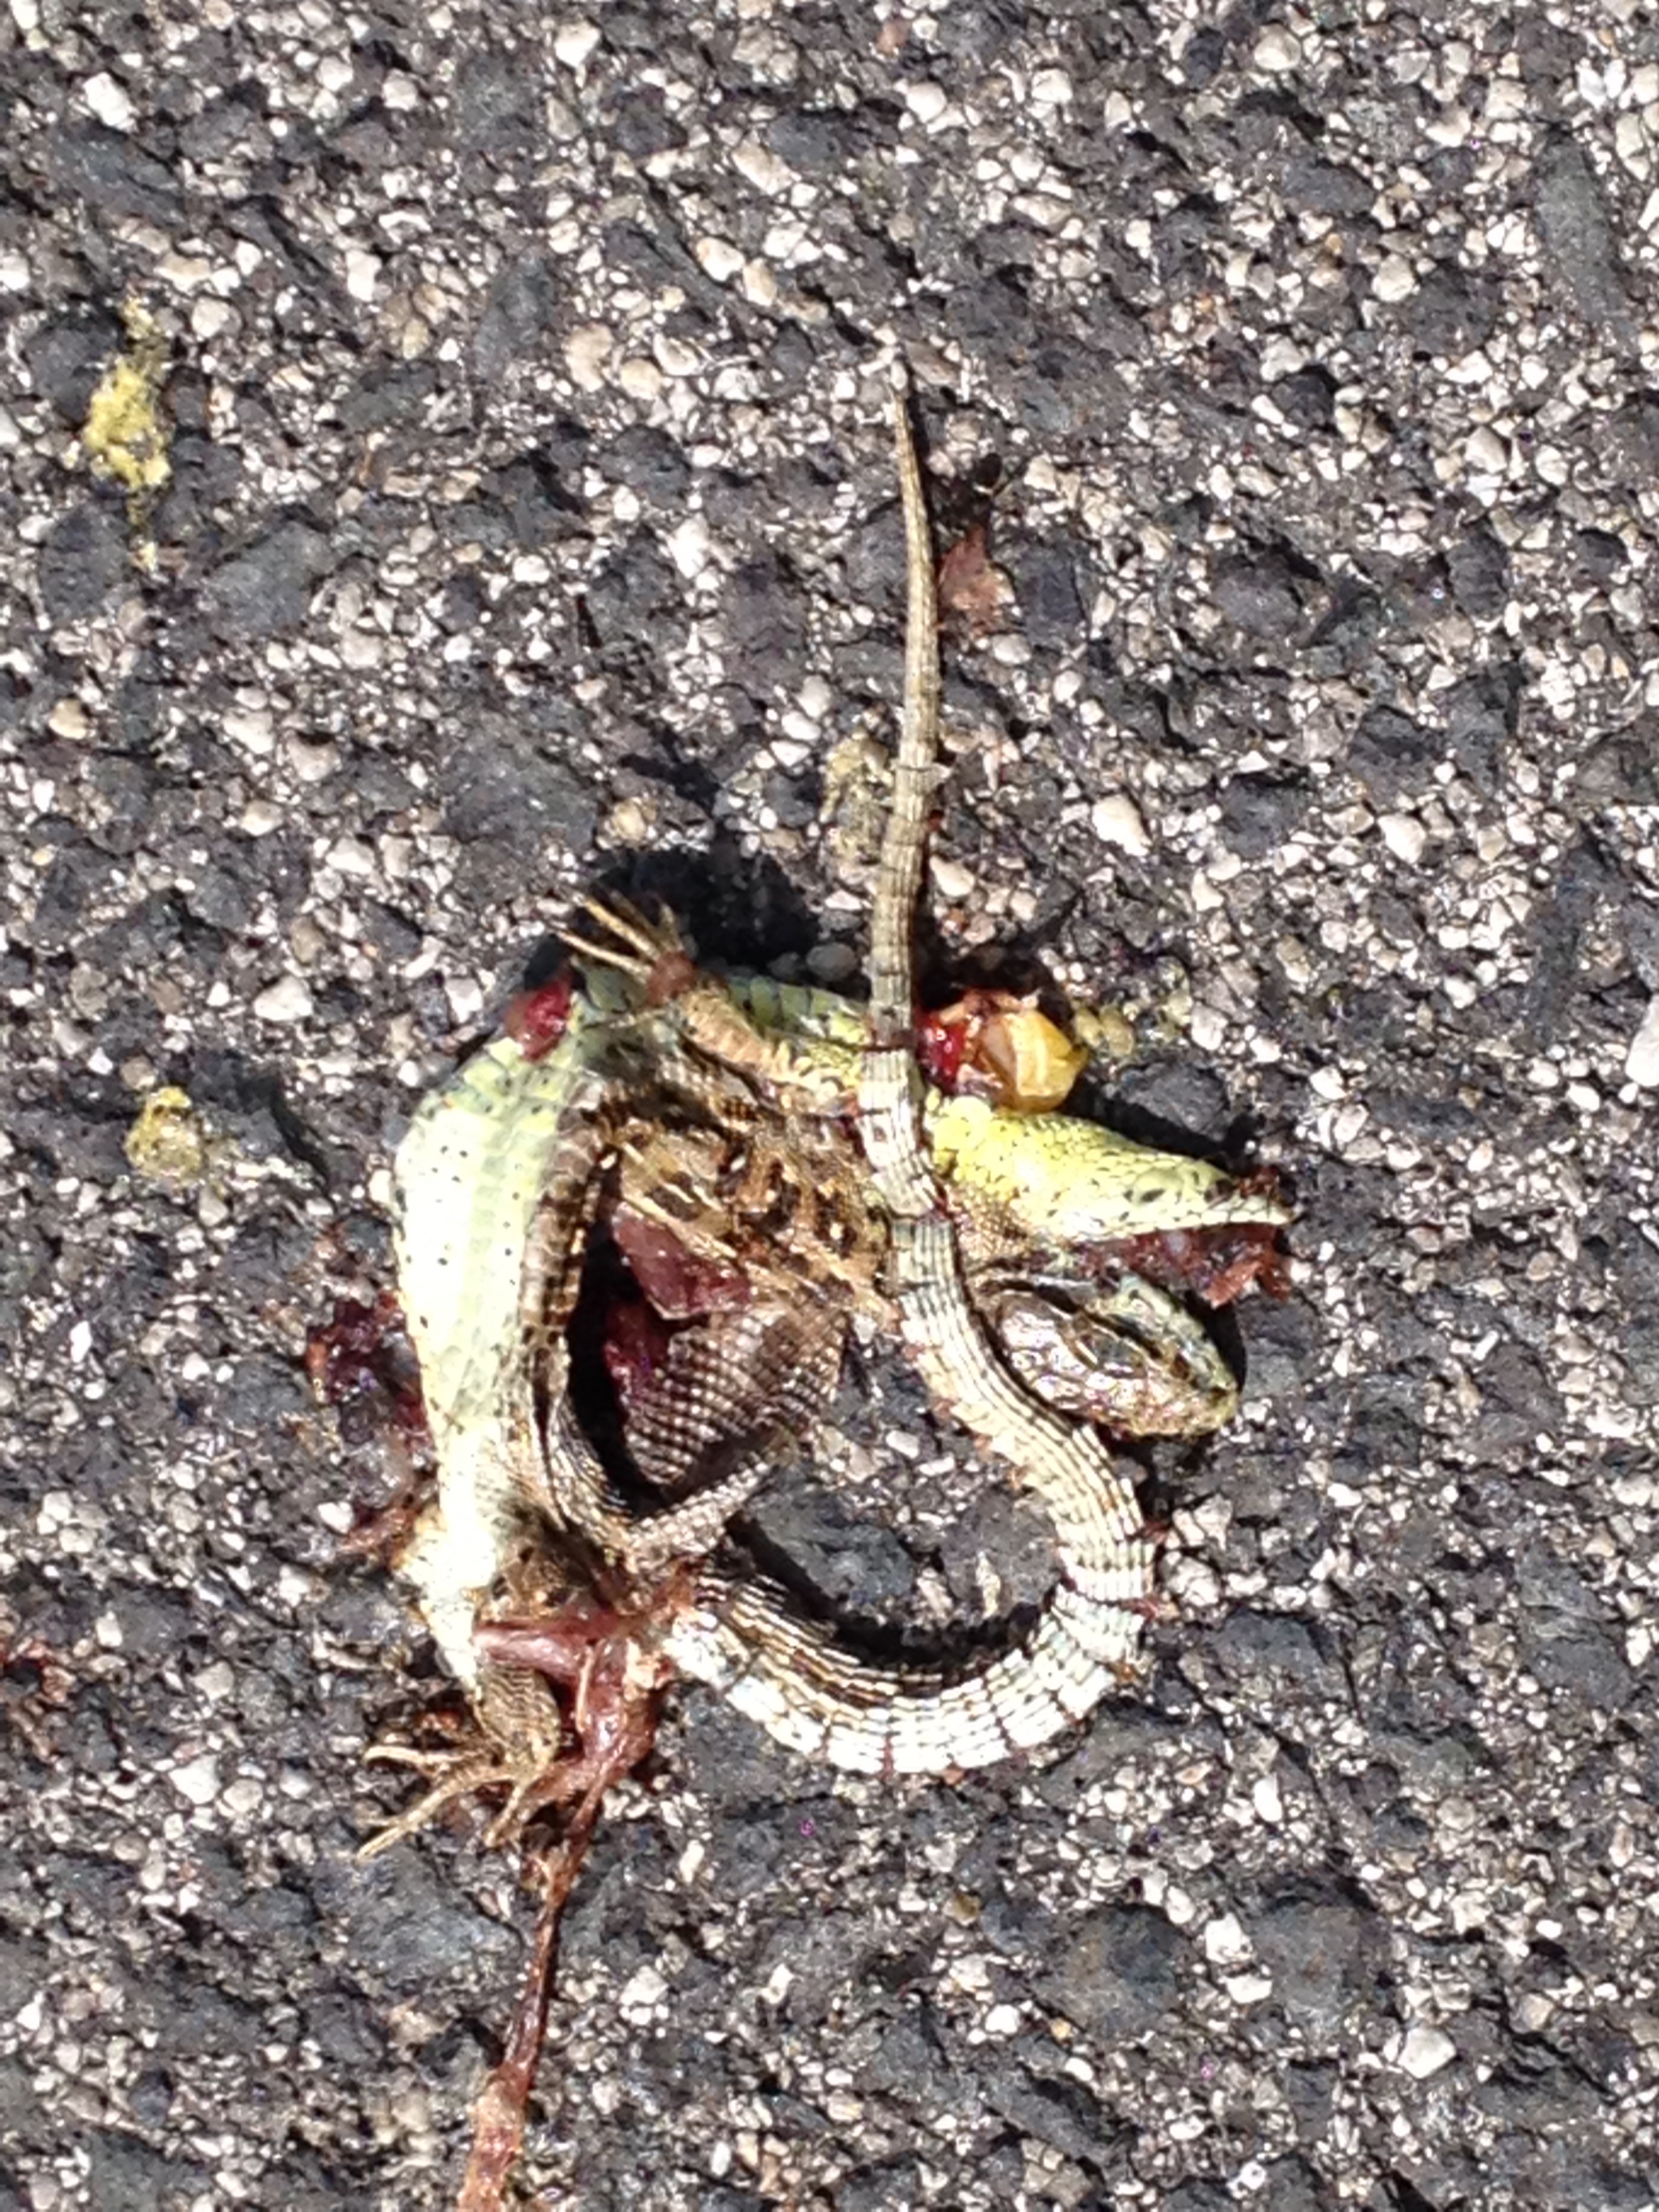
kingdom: Animalia
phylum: Chordata
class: Squamata
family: Lacertidae
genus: Lacerta
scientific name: Lacerta agilis
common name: Sand lizard
